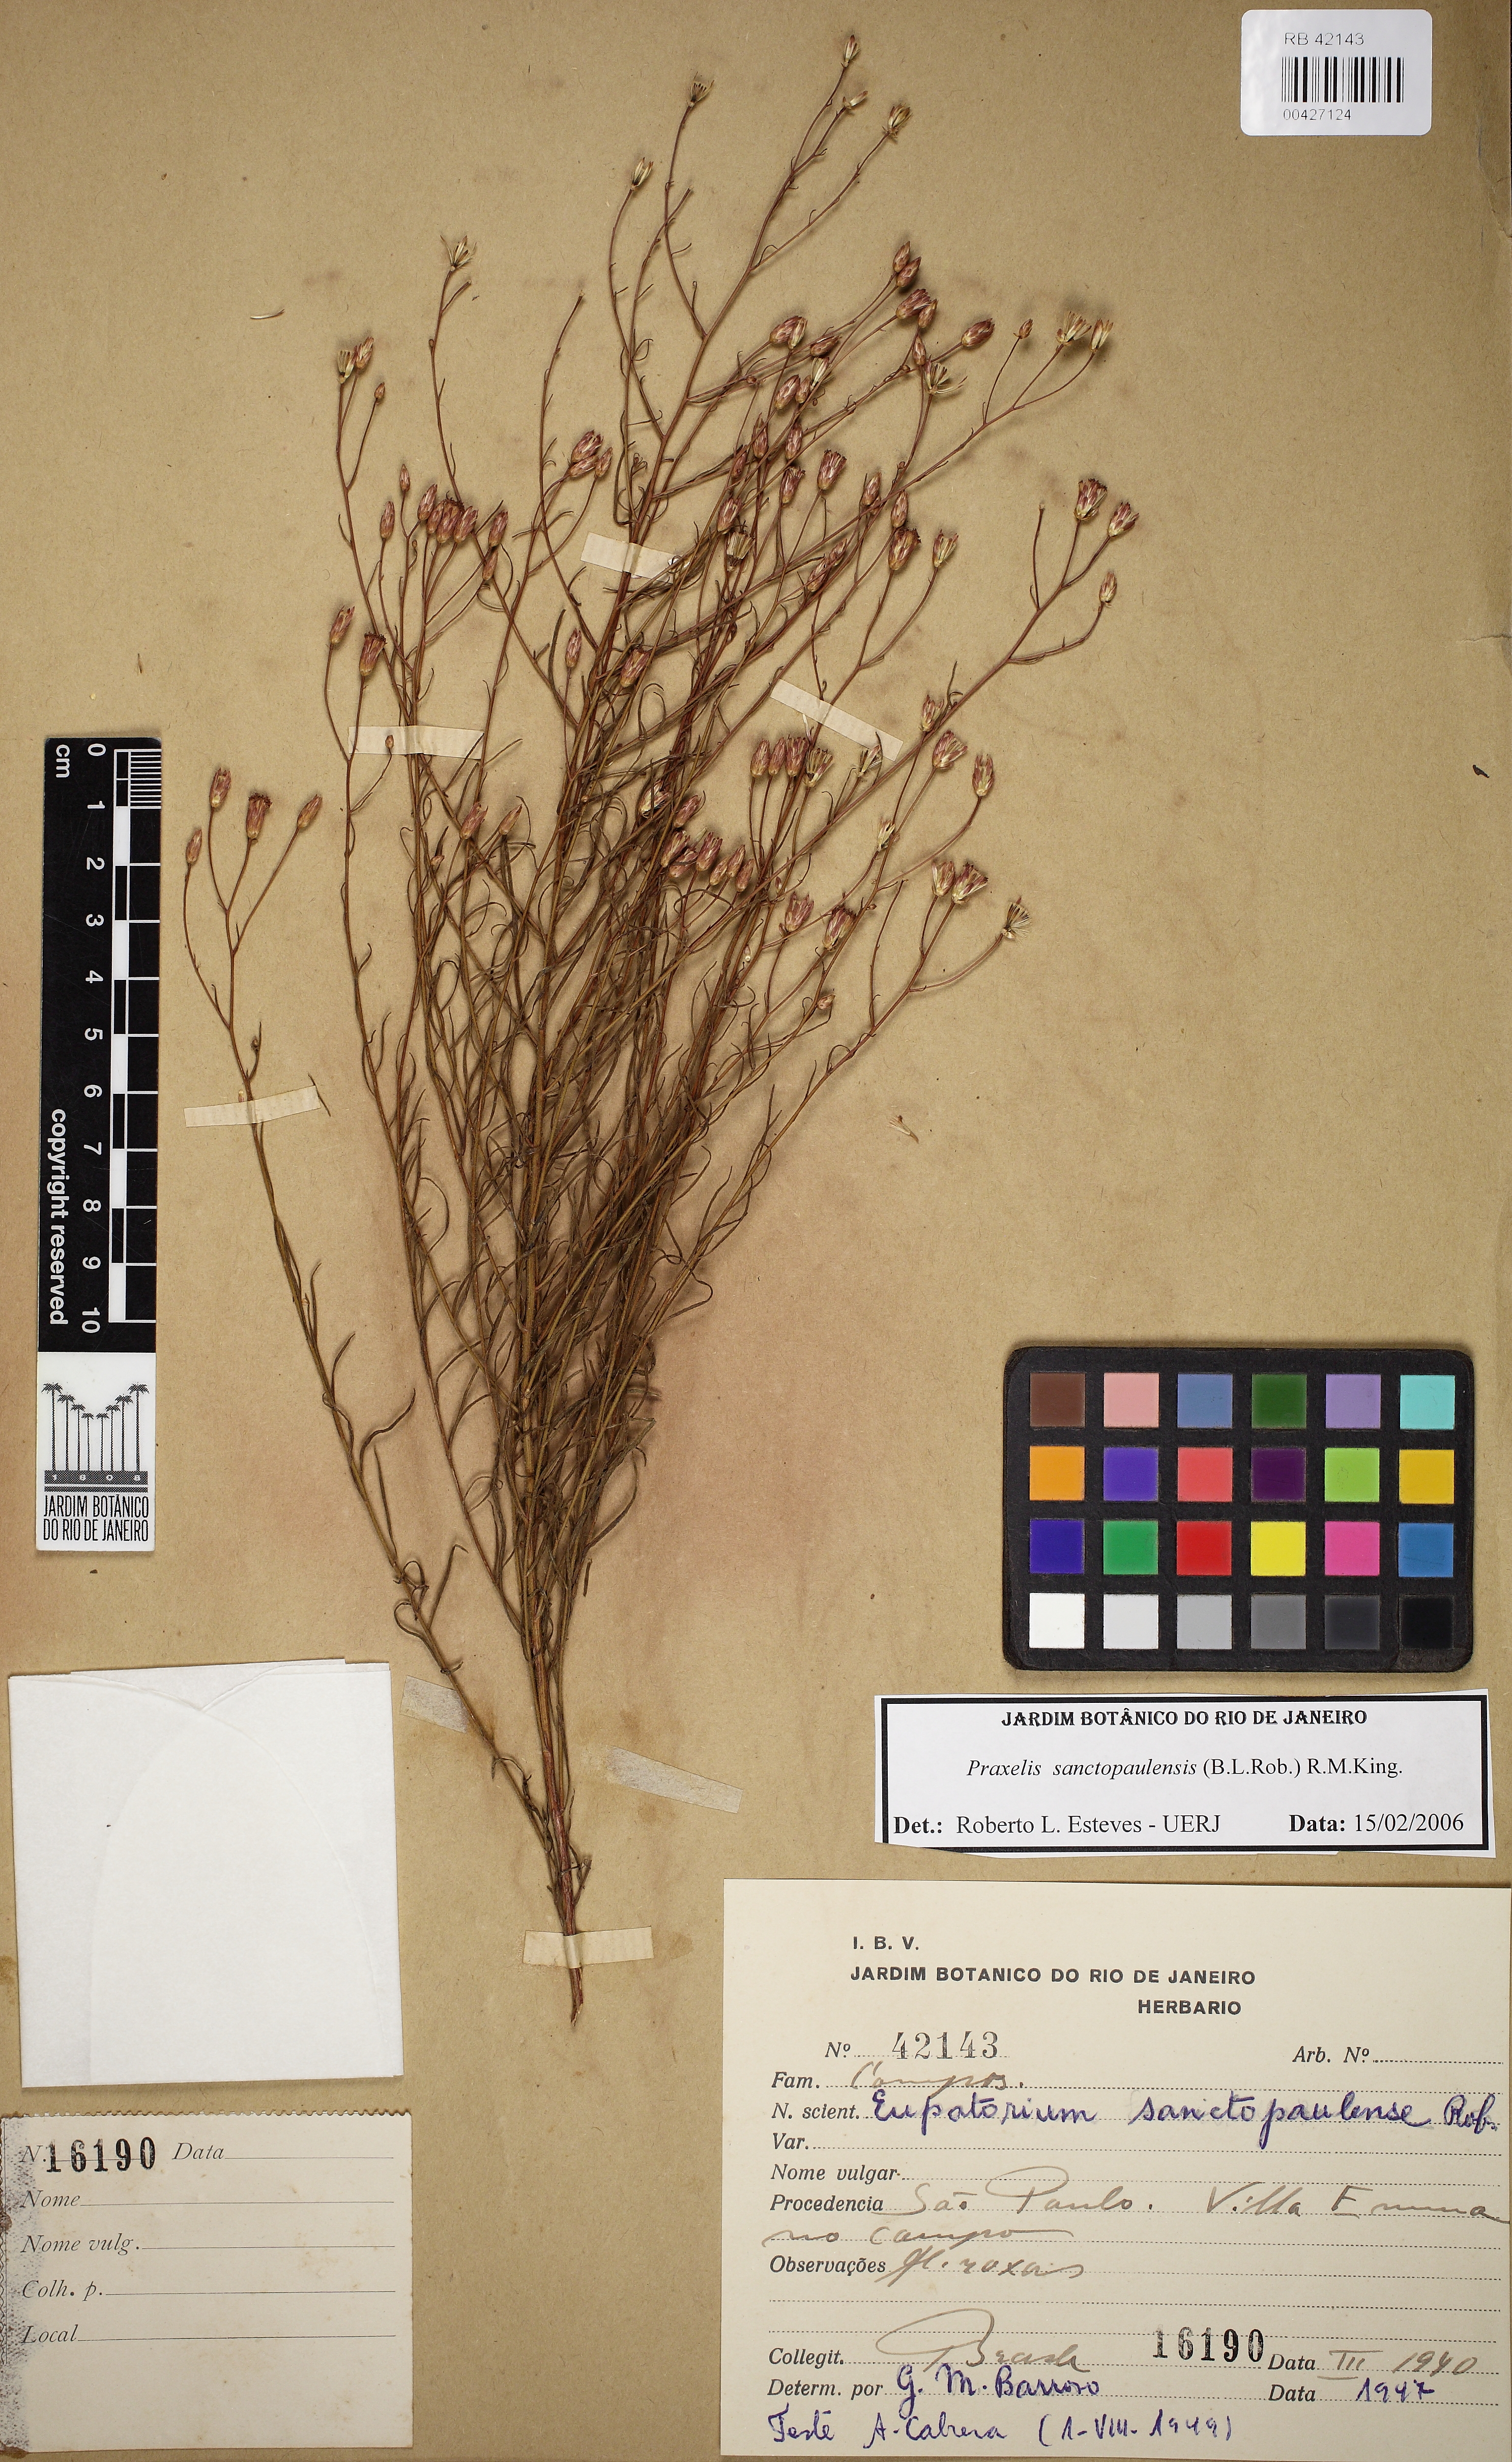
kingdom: Plantae
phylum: Tracheophyta
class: Magnoliopsida
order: Asterales
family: Asteraceae
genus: Praxelis
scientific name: Praxelis sanctopaulensis
